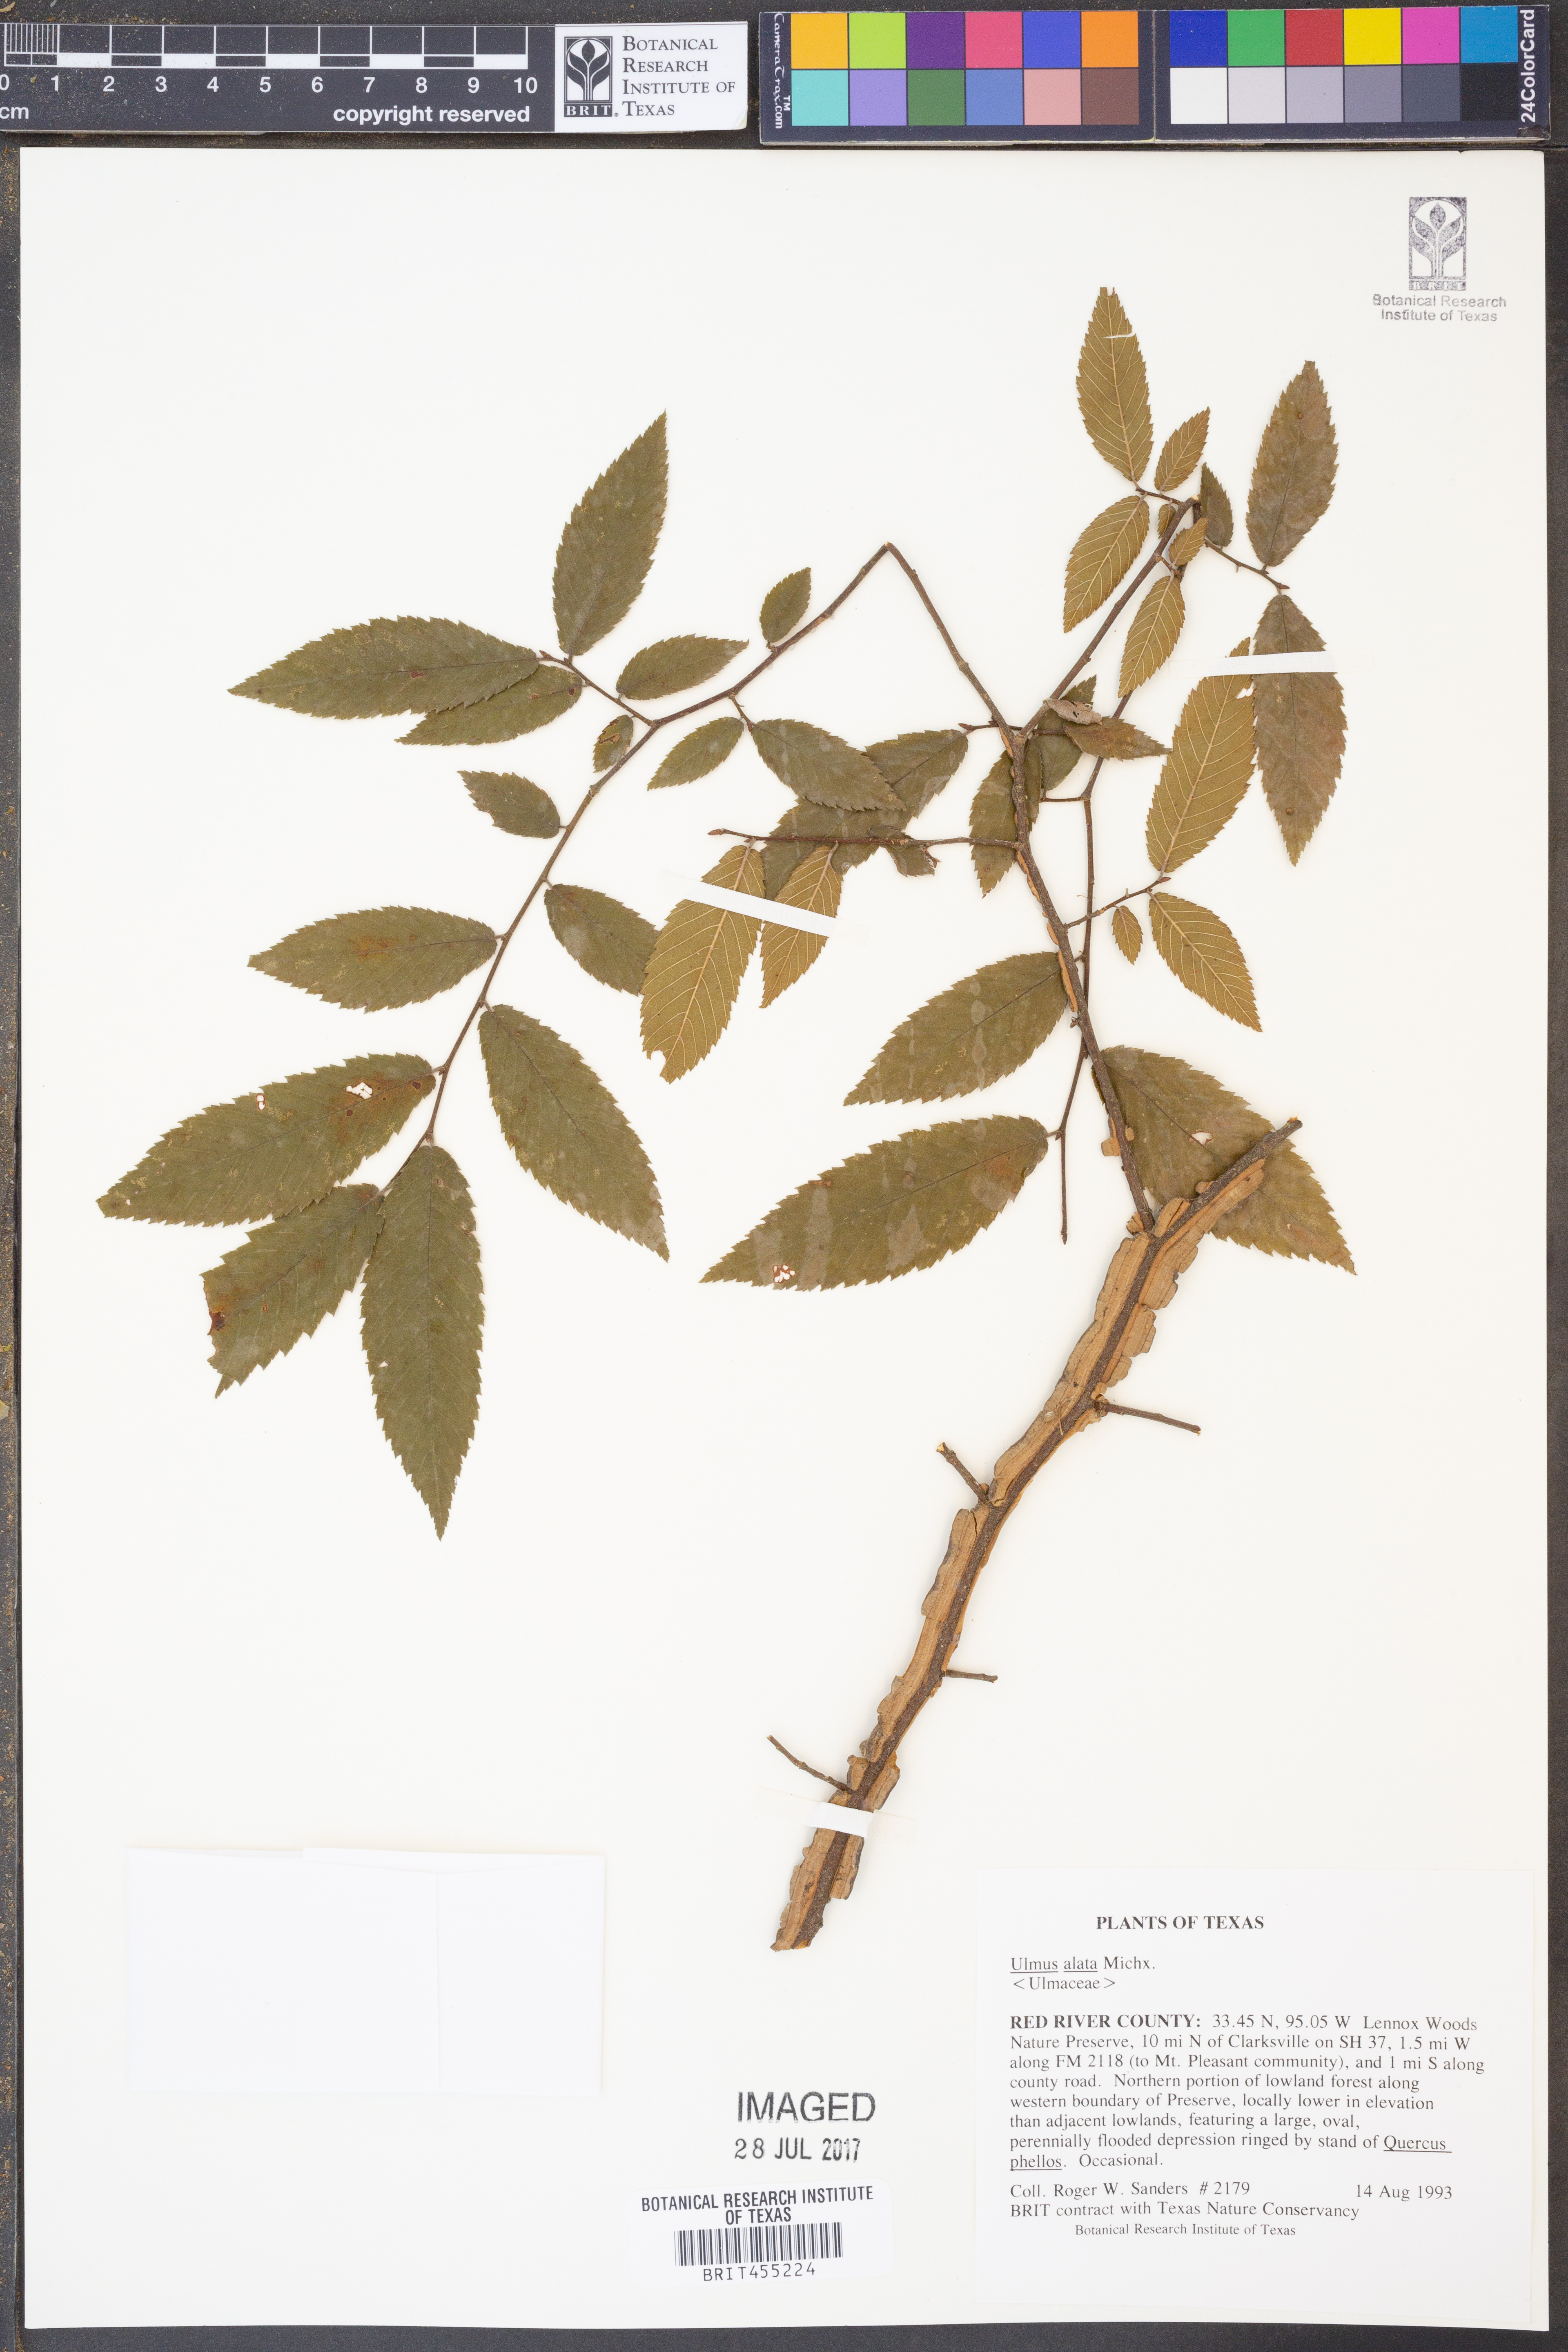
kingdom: Plantae
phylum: Tracheophyta
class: Magnoliopsida
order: Rosales
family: Ulmaceae
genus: Ulmus
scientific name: Ulmus alata
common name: Winged elm
